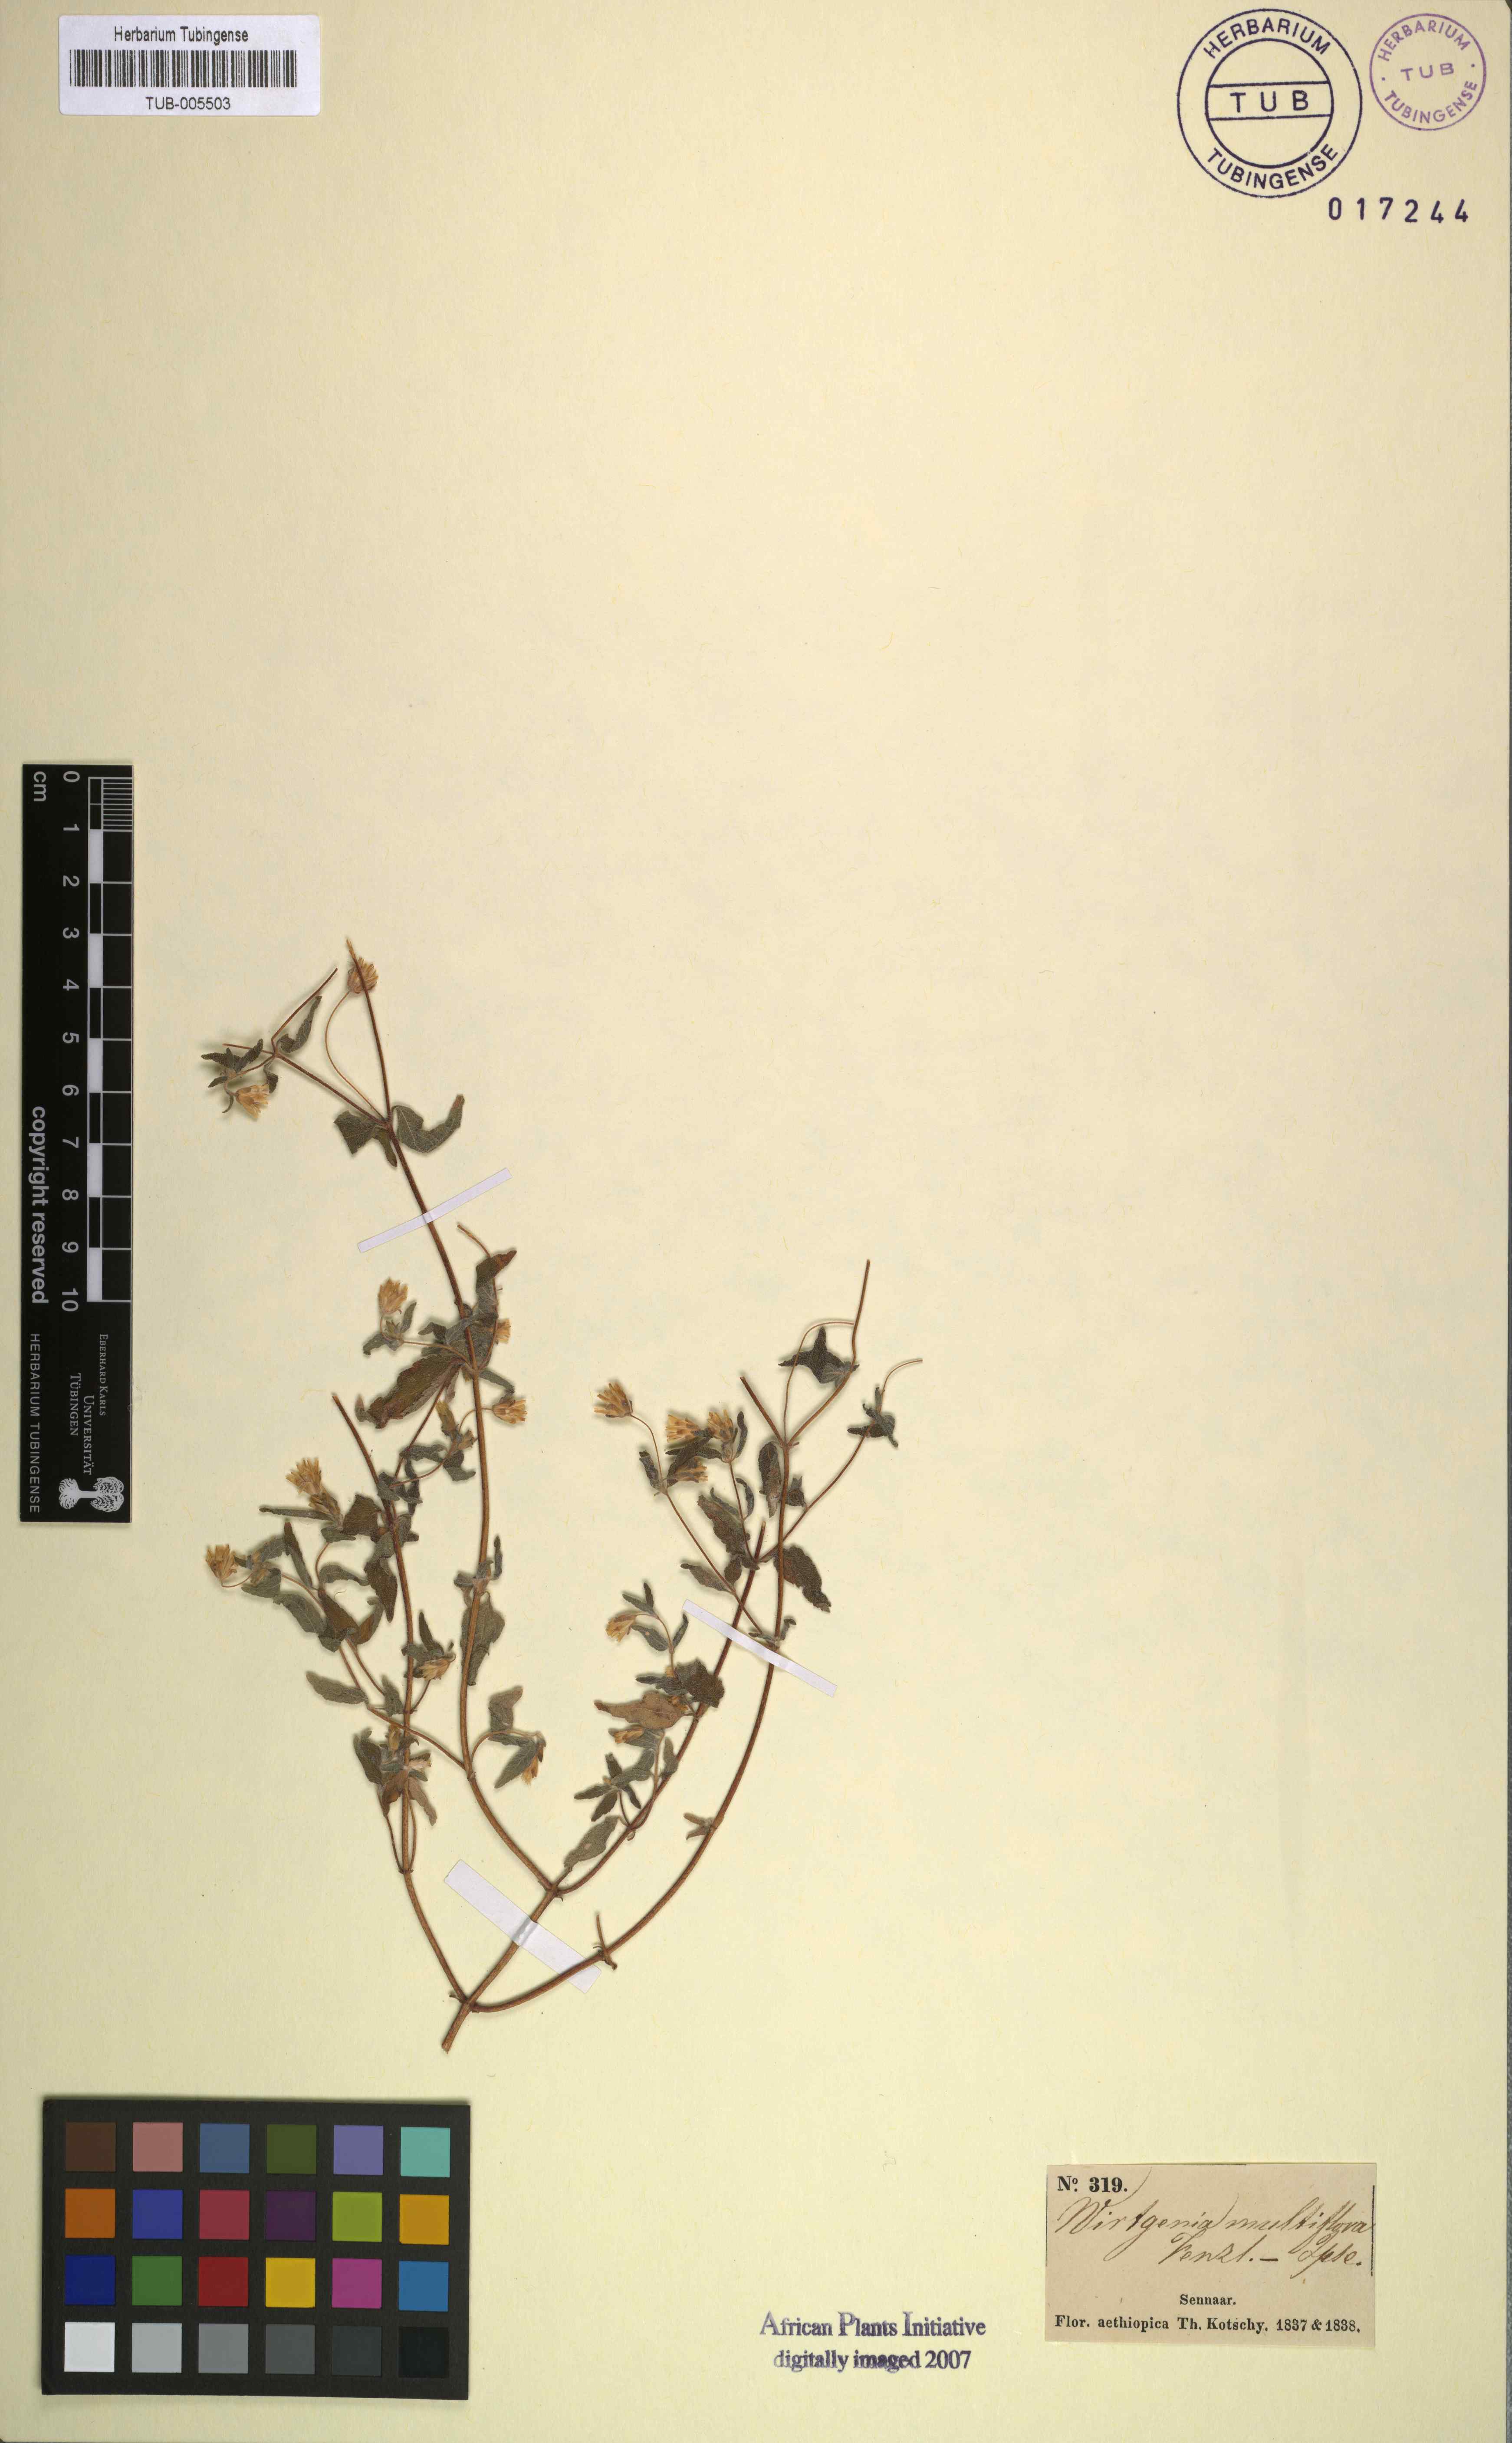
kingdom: Plantae
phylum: Tracheophyta
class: Magnoliopsida
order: Asterales
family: Asteraceae
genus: Aspilia
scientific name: Aspilia helianthoides
